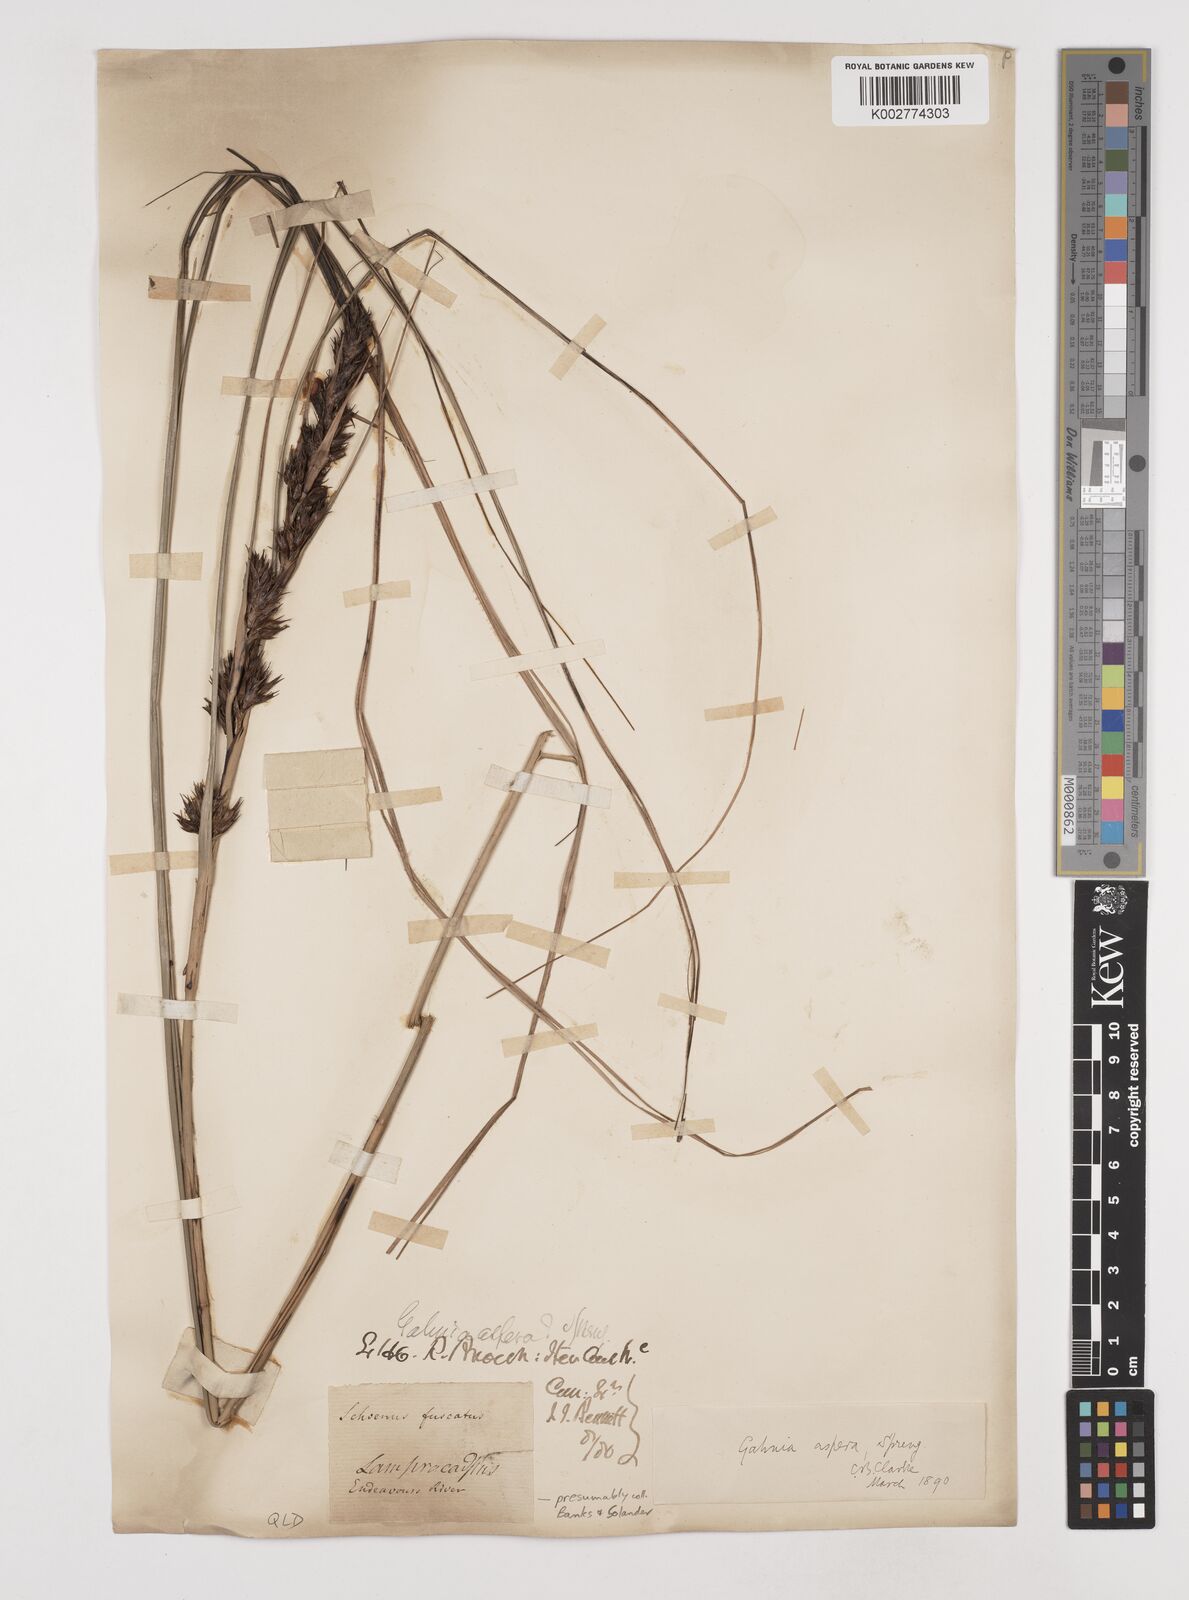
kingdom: Plantae
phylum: Tracheophyta
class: Liliopsida
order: Poales
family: Cyperaceae
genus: Gahnia
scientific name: Gahnia aspera
